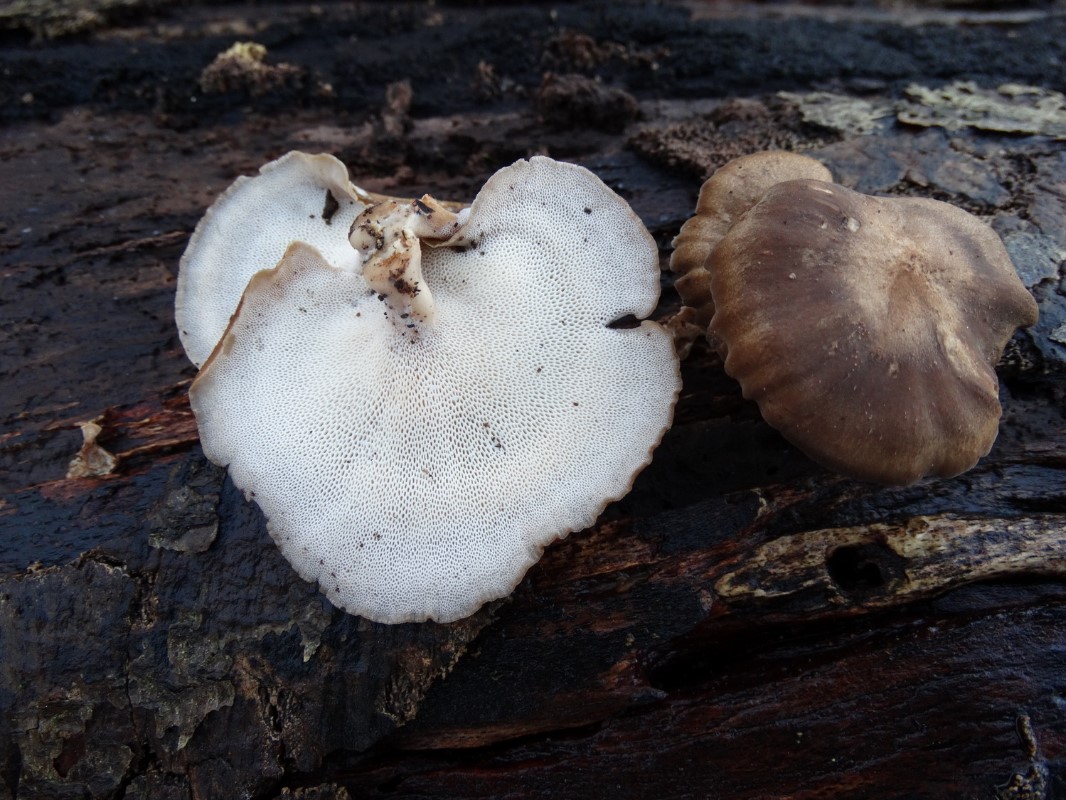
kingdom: Fungi
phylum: Basidiomycota
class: Agaricomycetes
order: Polyporales
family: Polyporaceae
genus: Lentinus
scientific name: Lentinus brumalis
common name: vinter-stilkporesvamp
